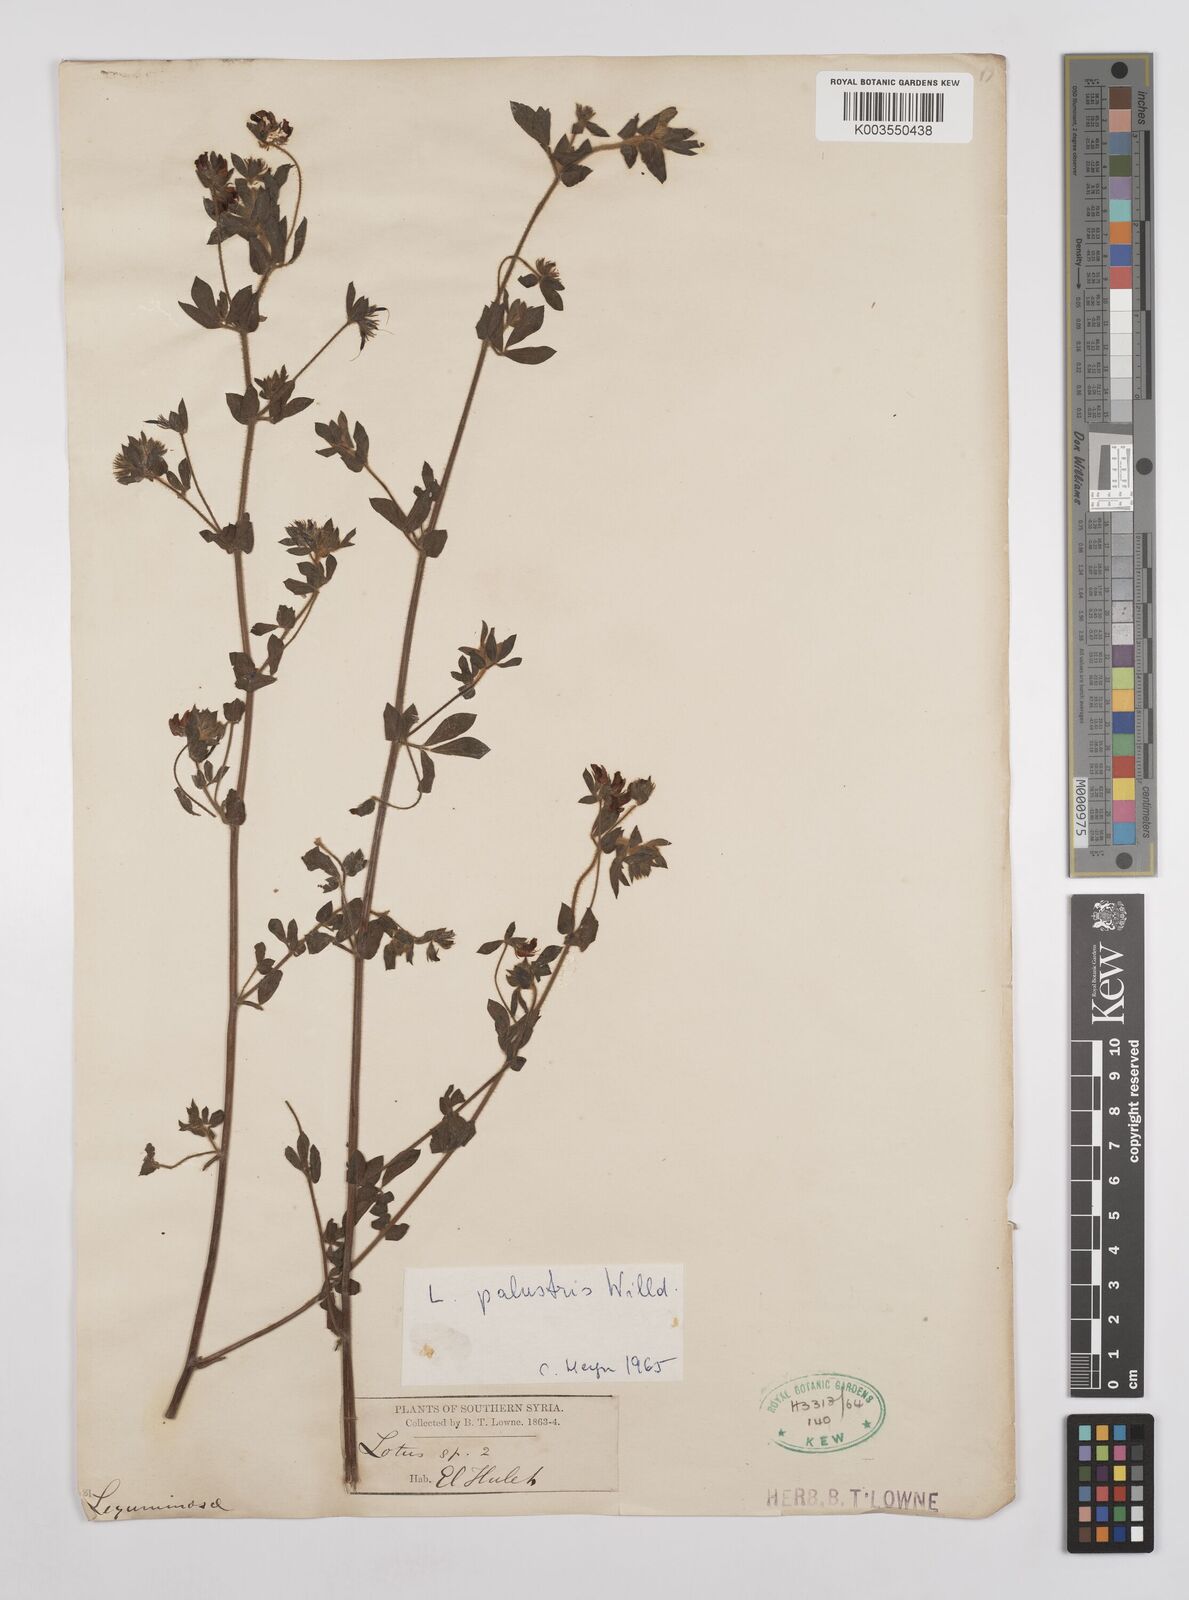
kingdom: Plantae
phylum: Tracheophyta
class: Magnoliopsida
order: Fabales
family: Fabaceae
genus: Lotus
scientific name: Lotus palustris
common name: Large birds-foot trefoil
